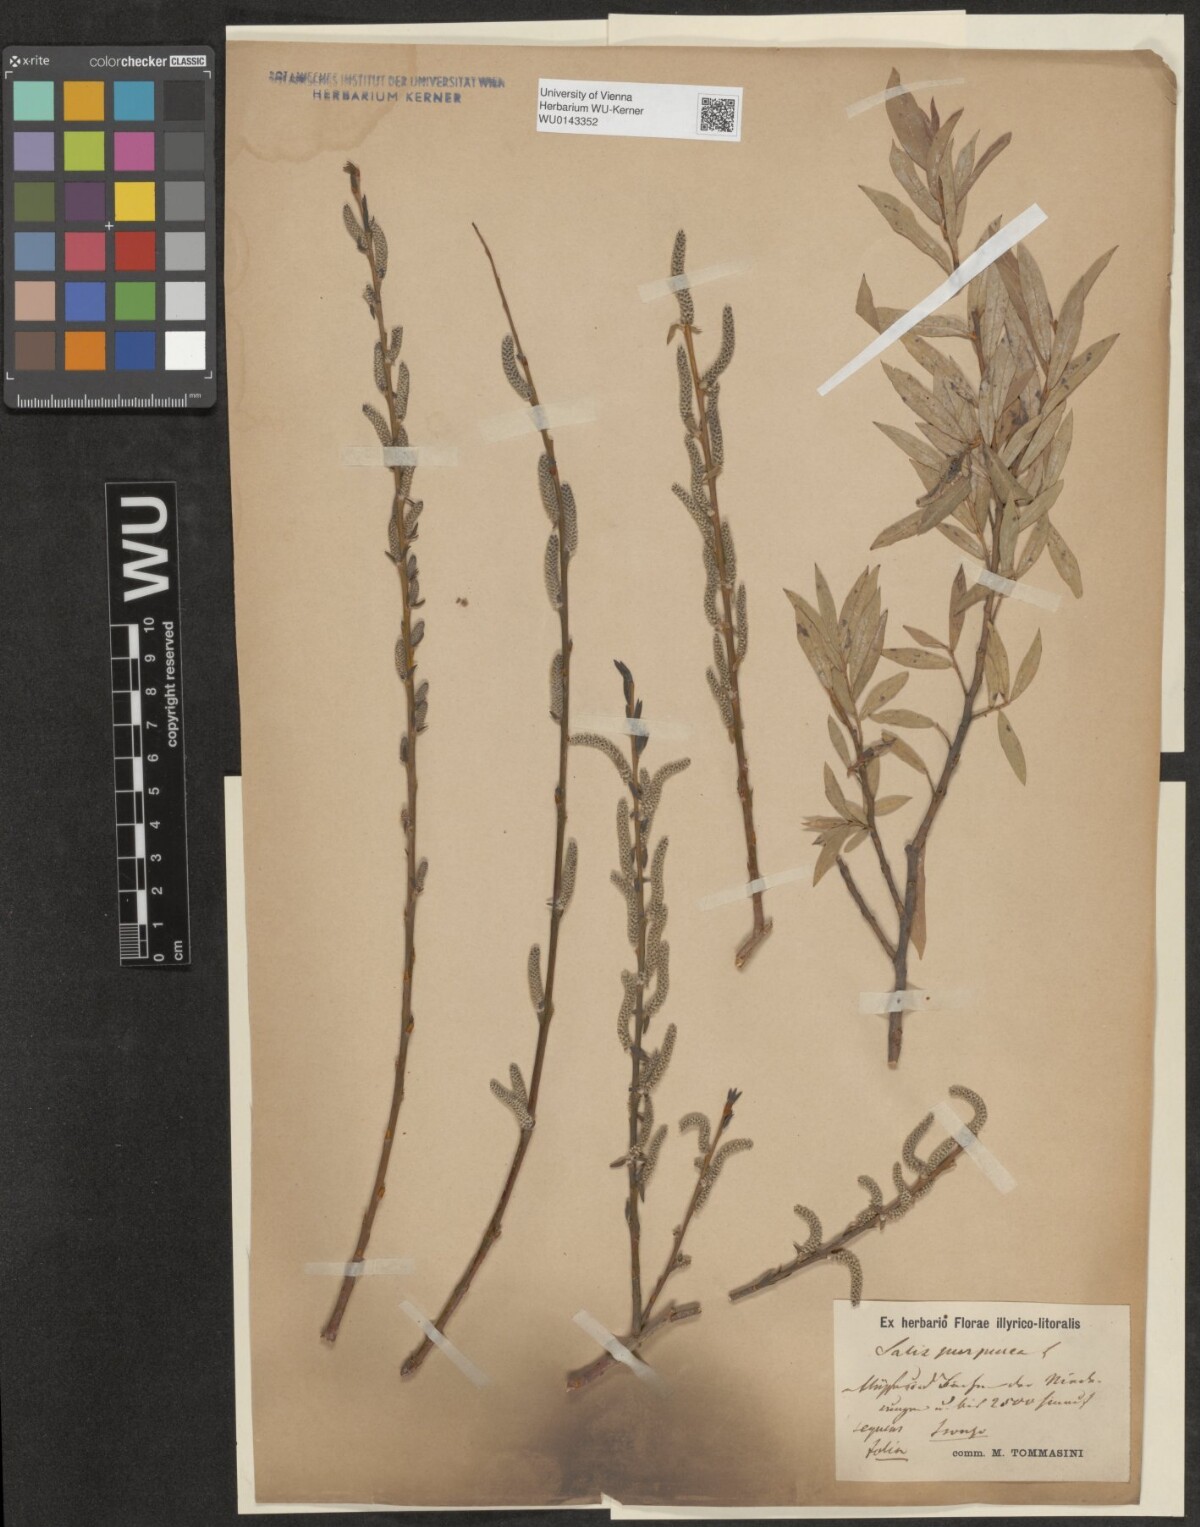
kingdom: Plantae
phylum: Tracheophyta
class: Magnoliopsida
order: Malpighiales
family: Salicaceae
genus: Salix
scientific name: Salix purpurea
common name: Purple willow
